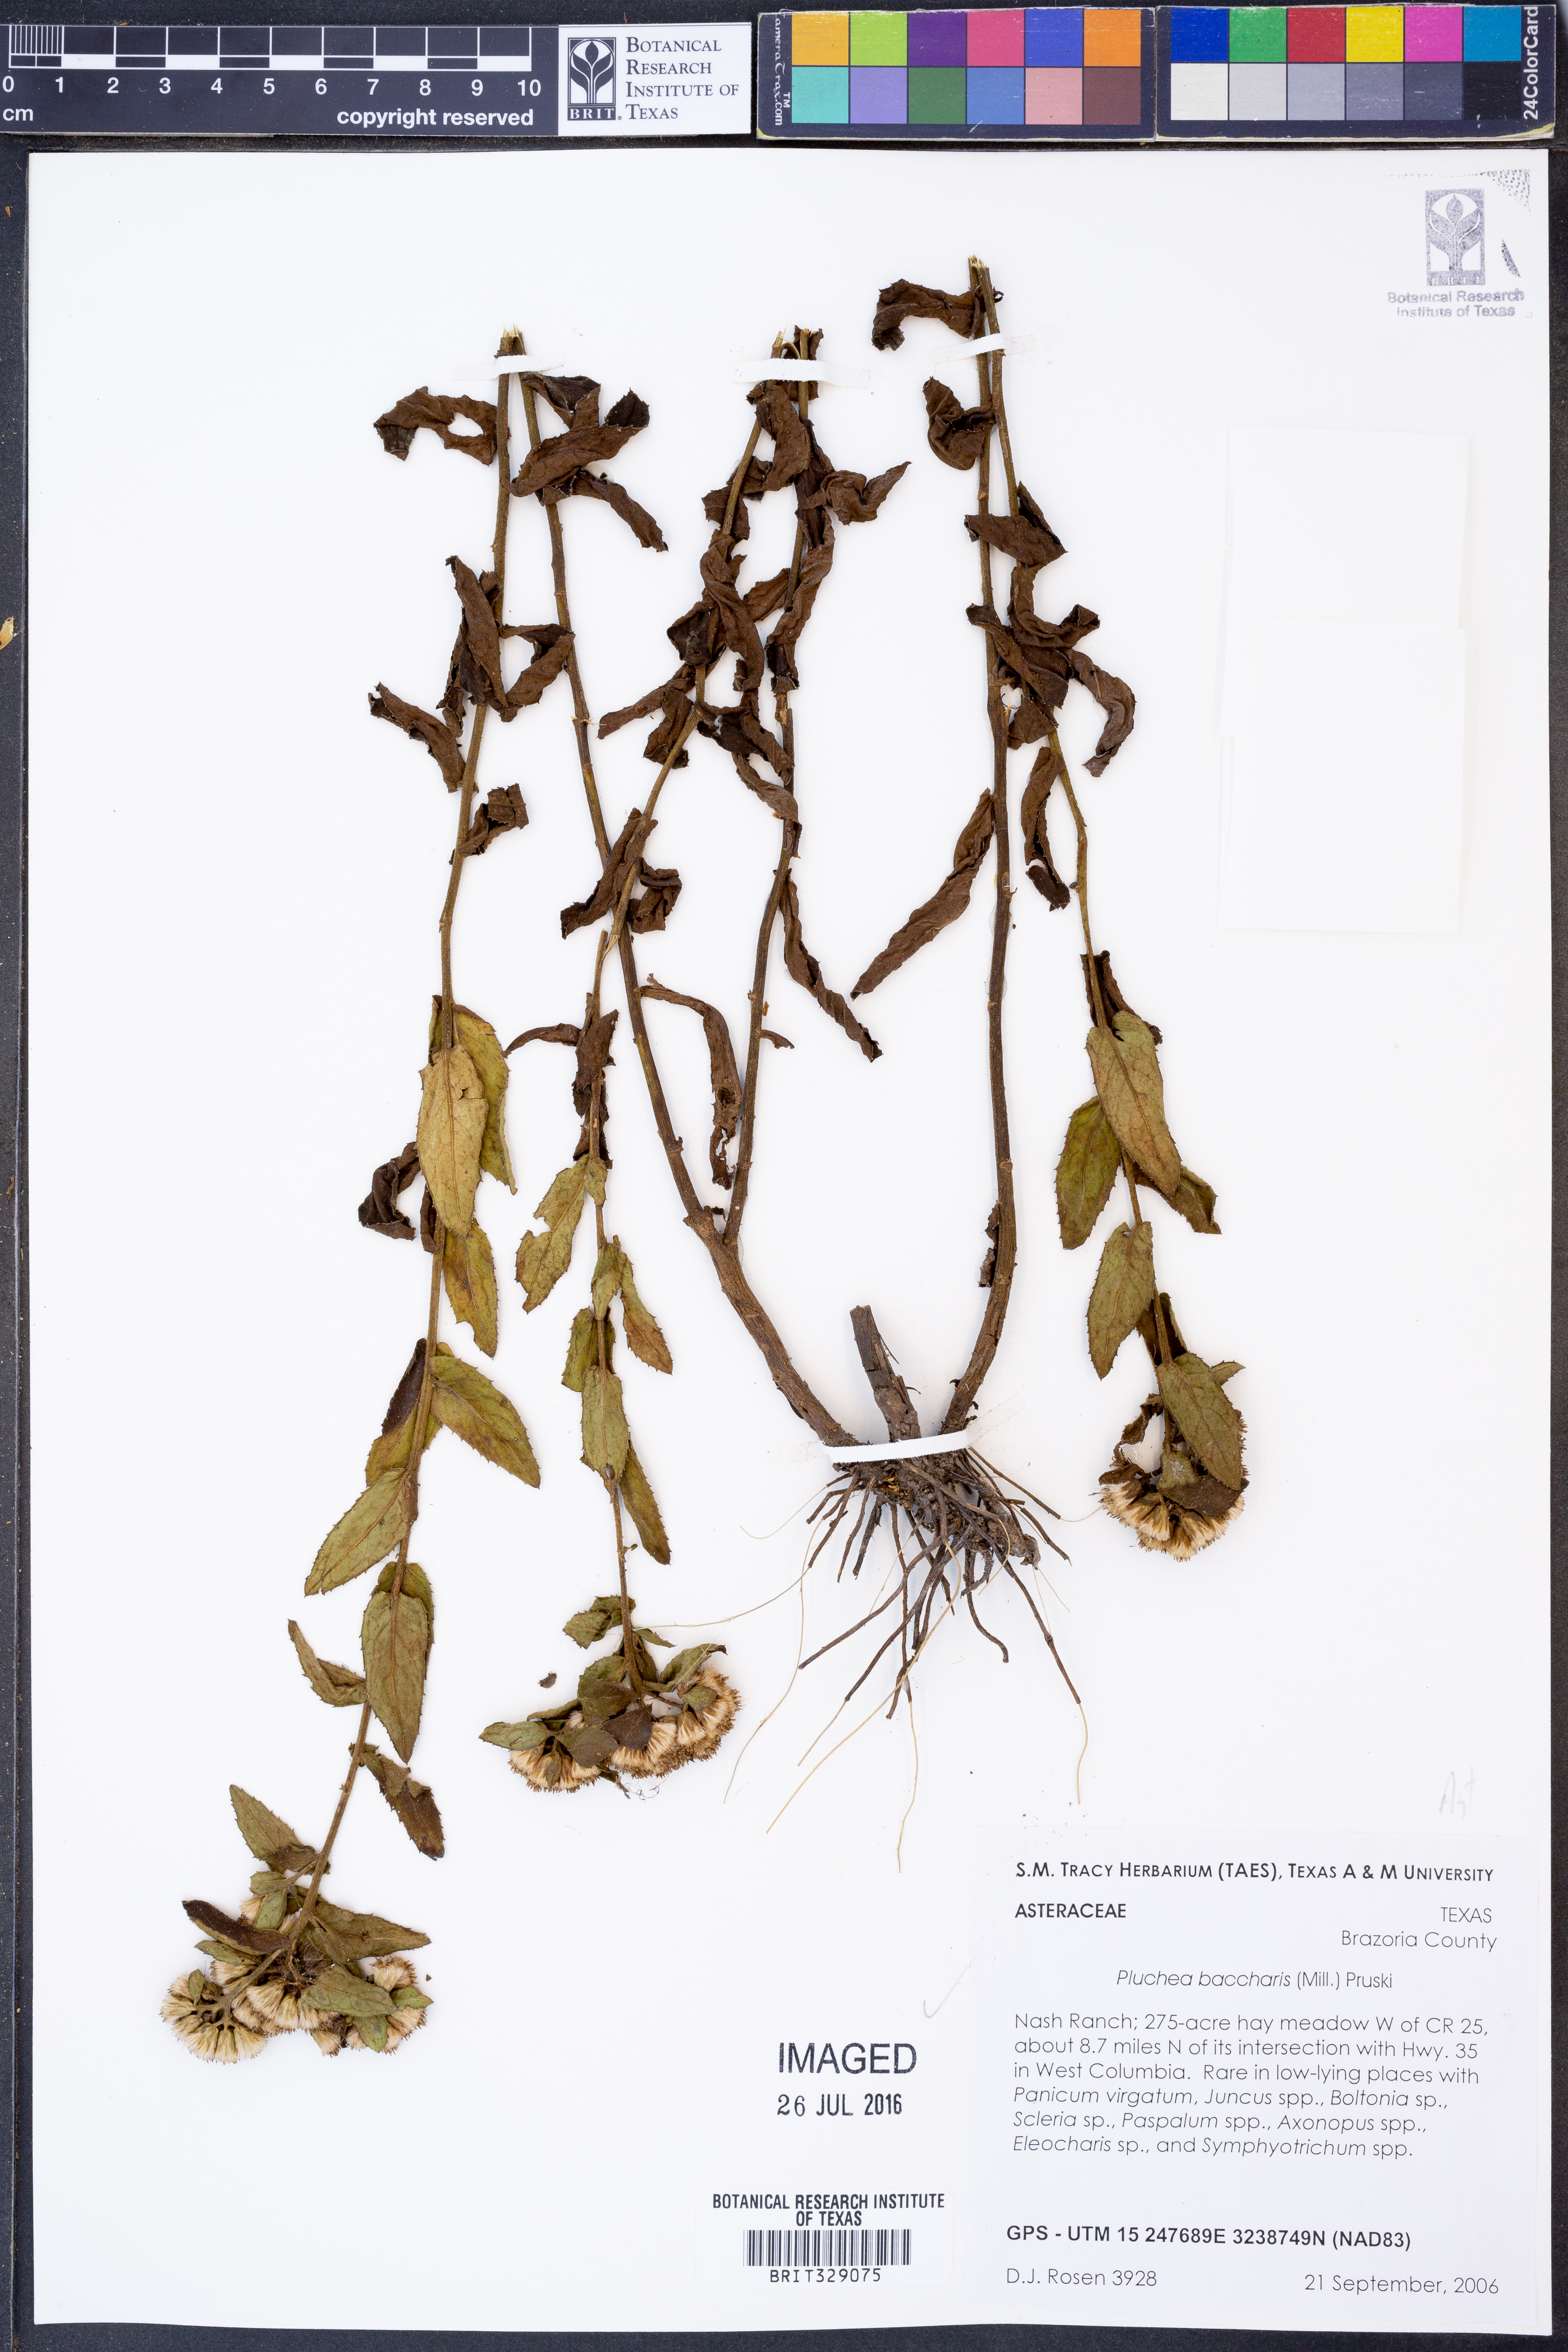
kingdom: Plantae
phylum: Tracheophyta
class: Magnoliopsida
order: Asterales
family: Asteraceae
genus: Pluchea
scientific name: Pluchea baccharis
